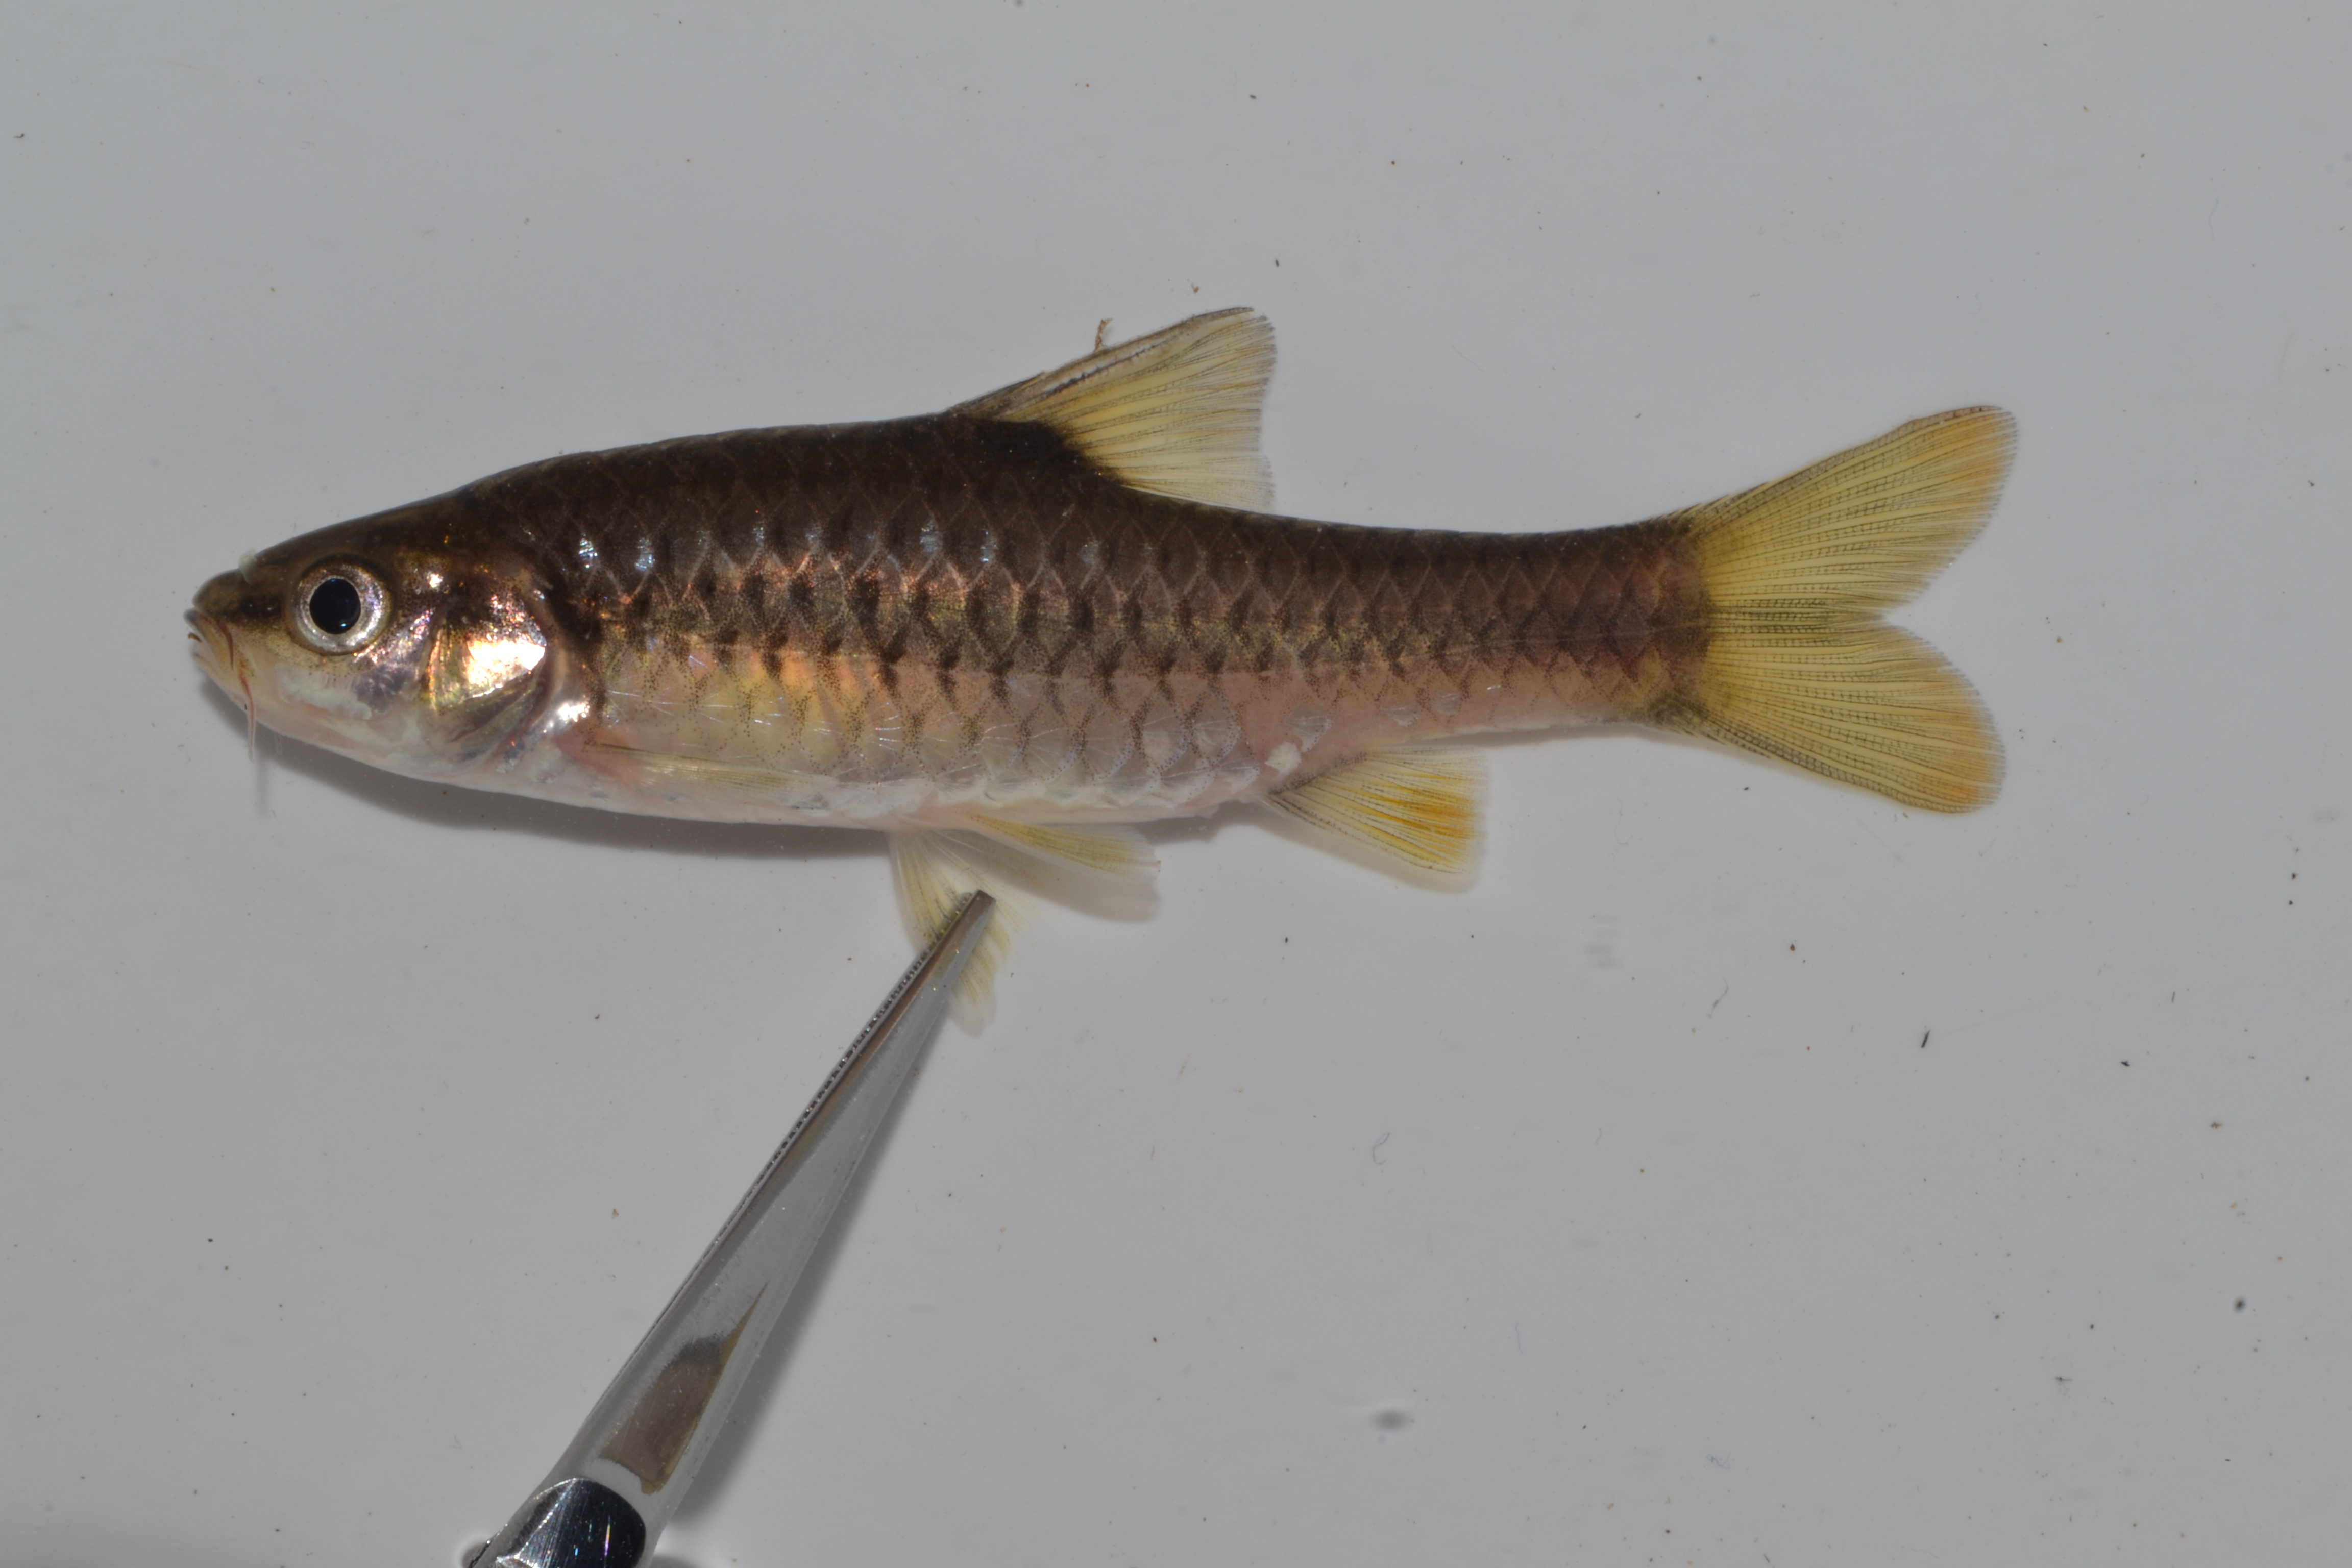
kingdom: Animalia
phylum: Chordata
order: Cypriniformes
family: Cyprinidae
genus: Enteromius
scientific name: Enteromius
